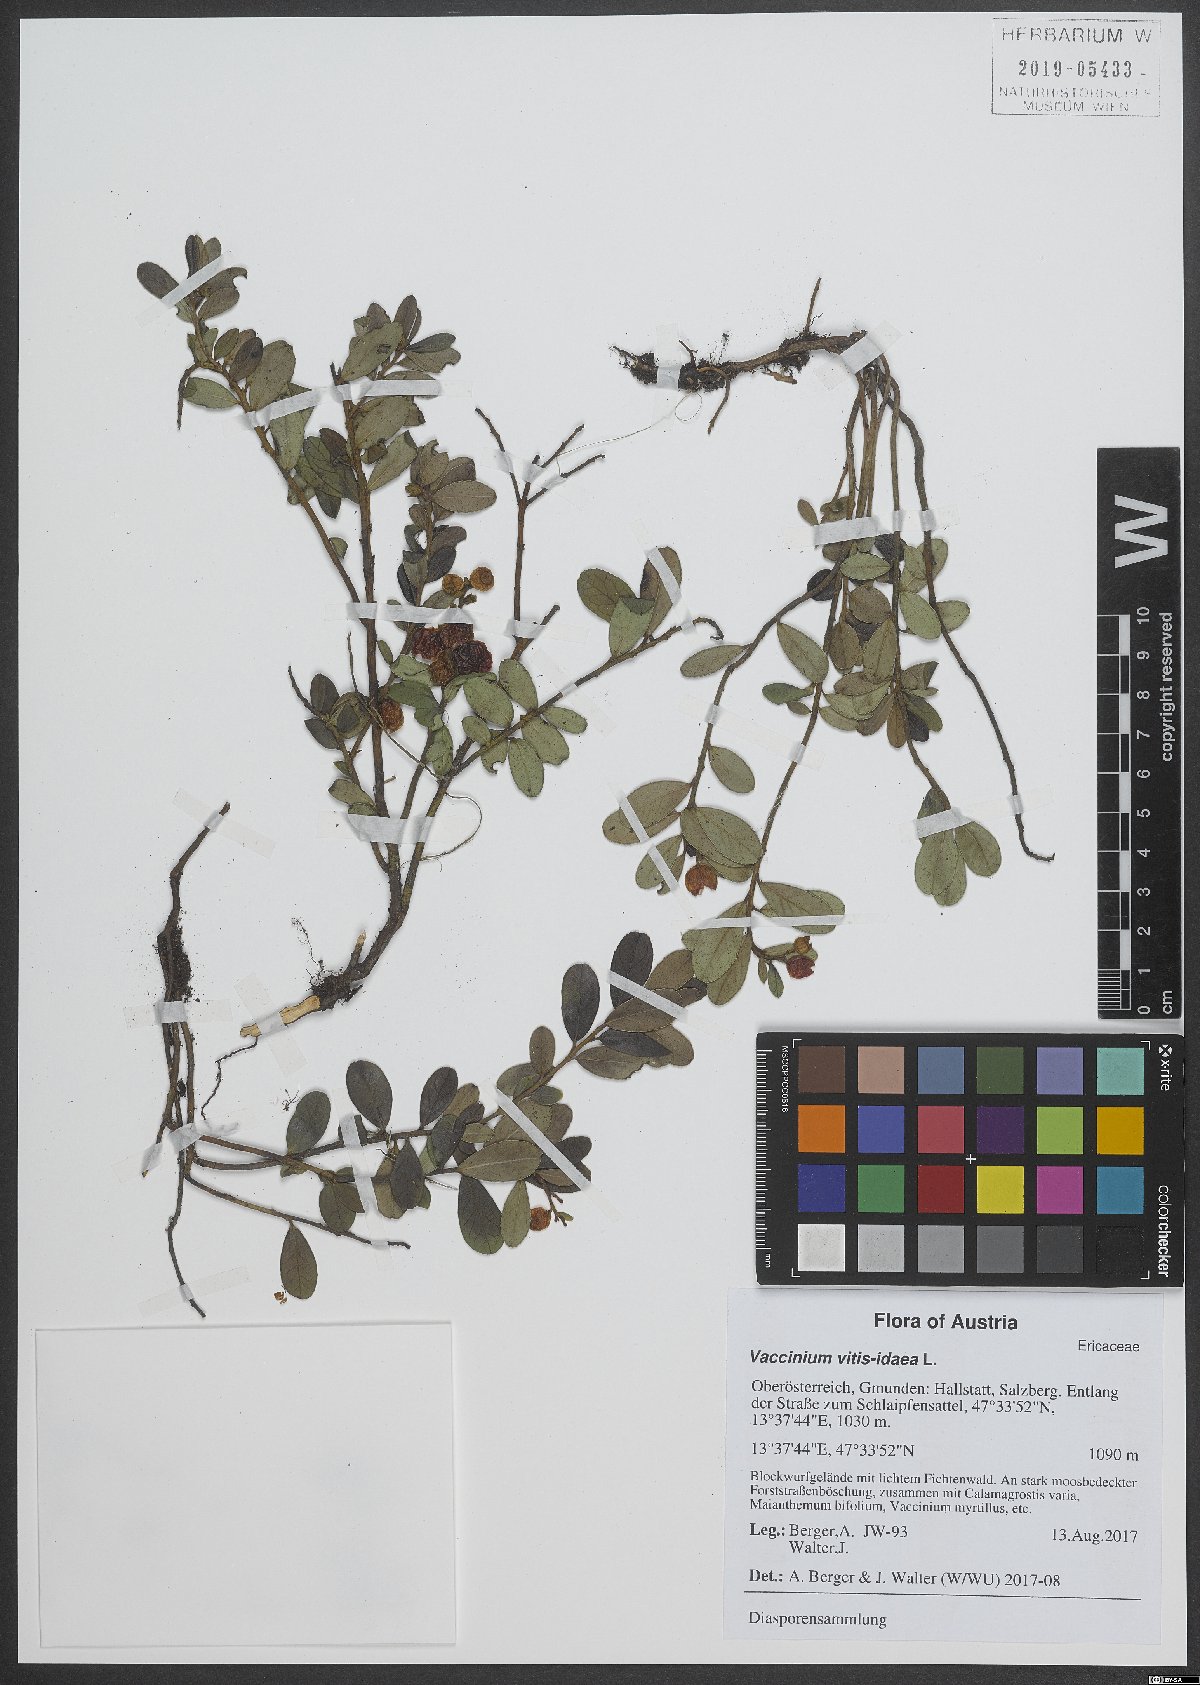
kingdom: Plantae
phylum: Tracheophyta
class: Magnoliopsida
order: Ericales
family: Ericaceae
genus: Vaccinium
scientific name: Vaccinium vitis-idaea
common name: Cowberry
